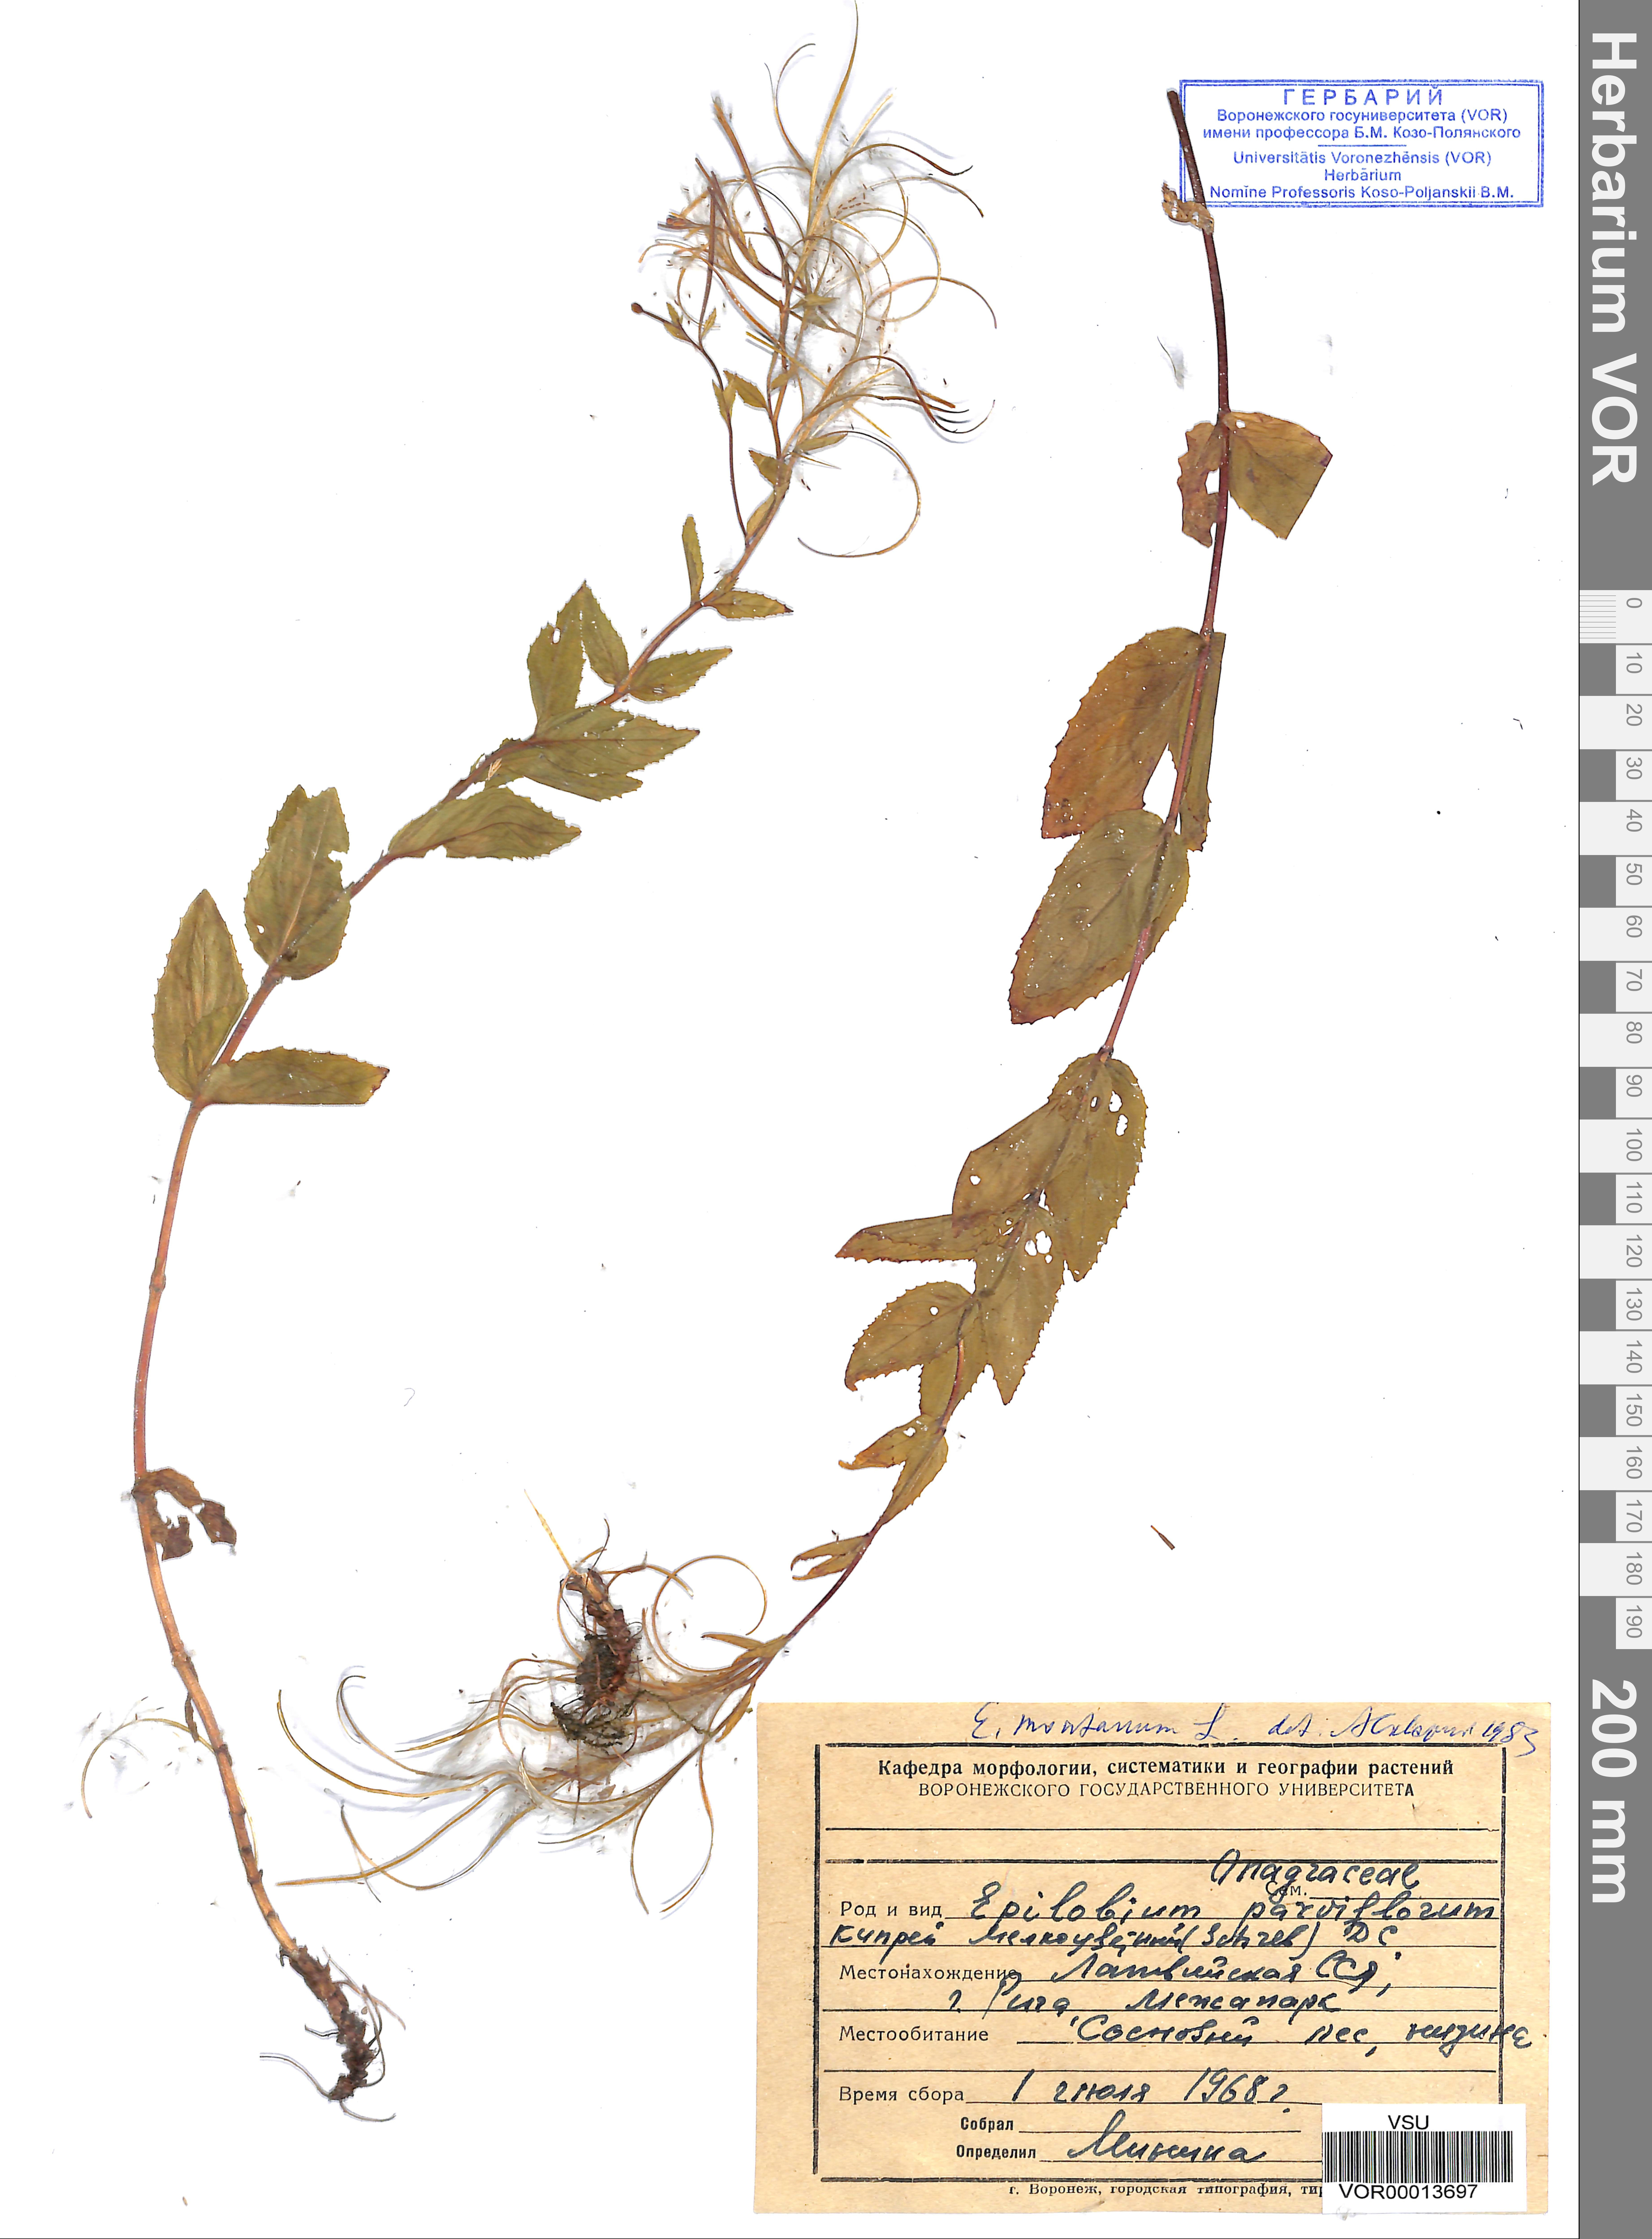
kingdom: Plantae
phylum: Tracheophyta
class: Magnoliopsida
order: Myrtales
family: Onagraceae
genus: Epilobium
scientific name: Epilobium montanum
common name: Broad-leaved willowherb
